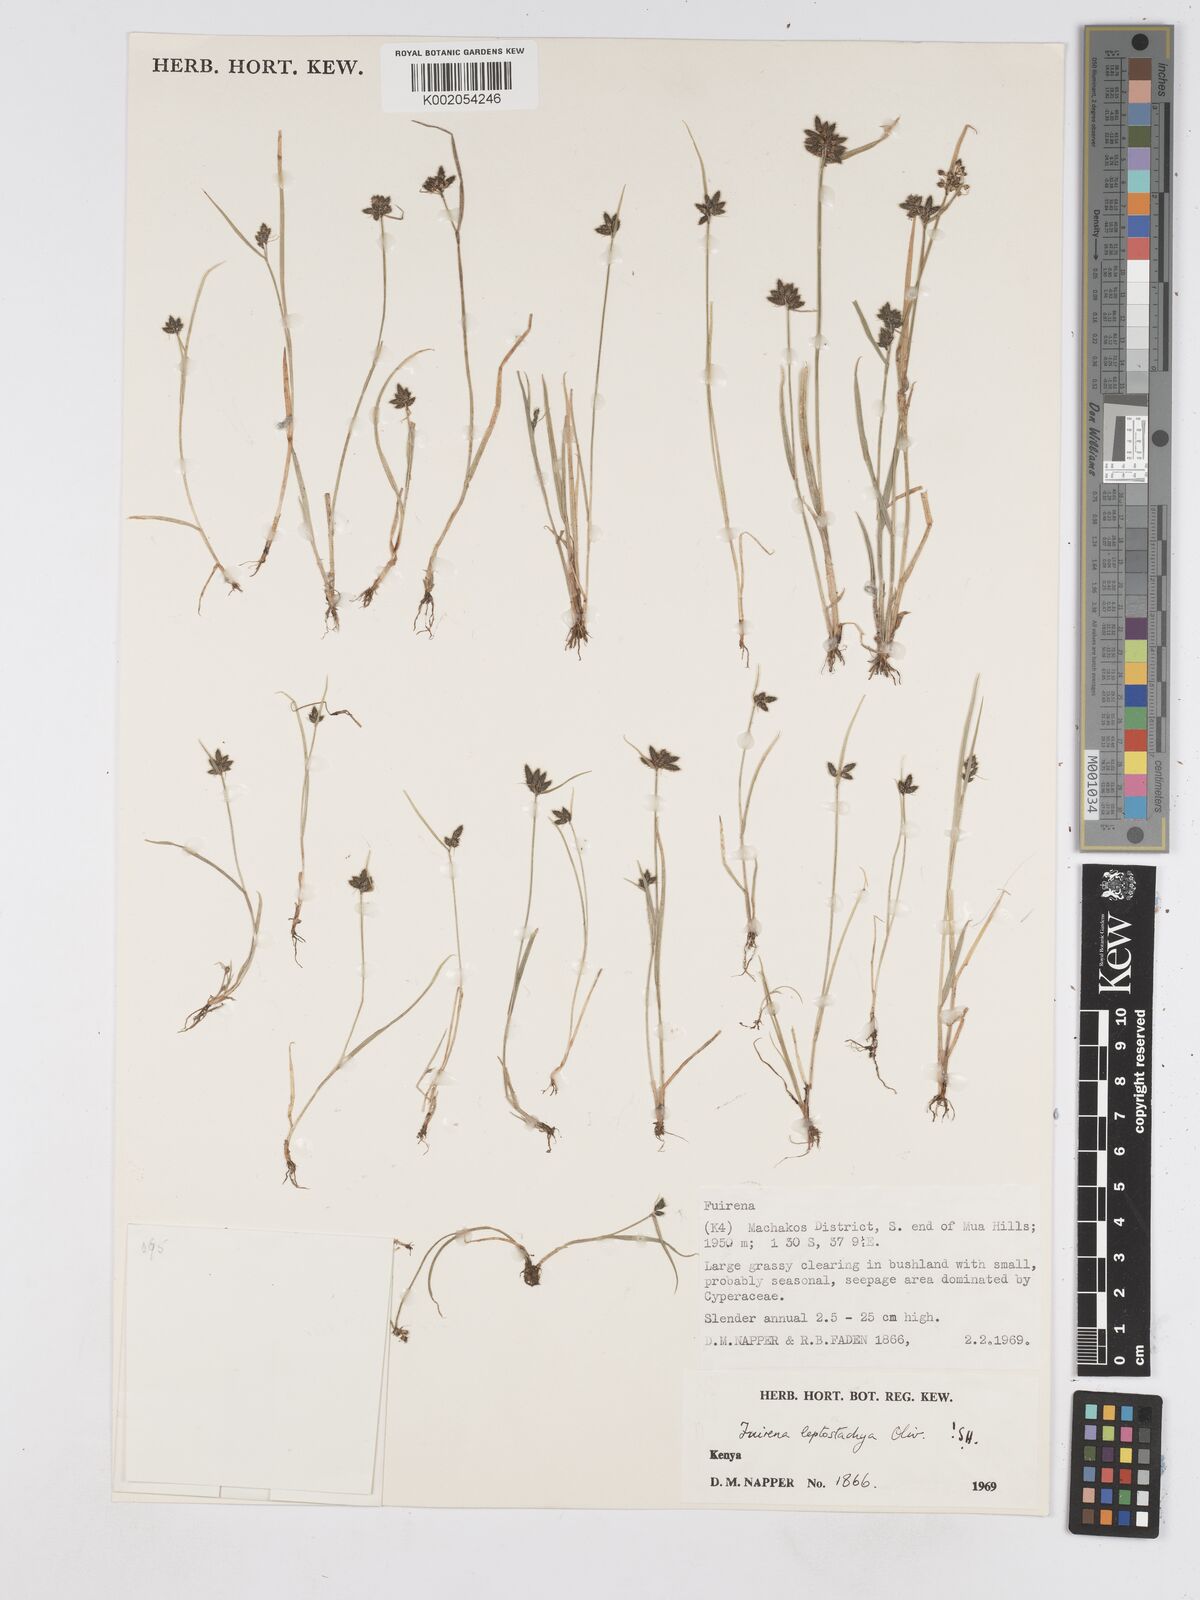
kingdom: Plantae
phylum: Tracheophyta
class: Liliopsida
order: Poales
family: Cyperaceae
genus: Fuirena
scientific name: Fuirena leptostachya
